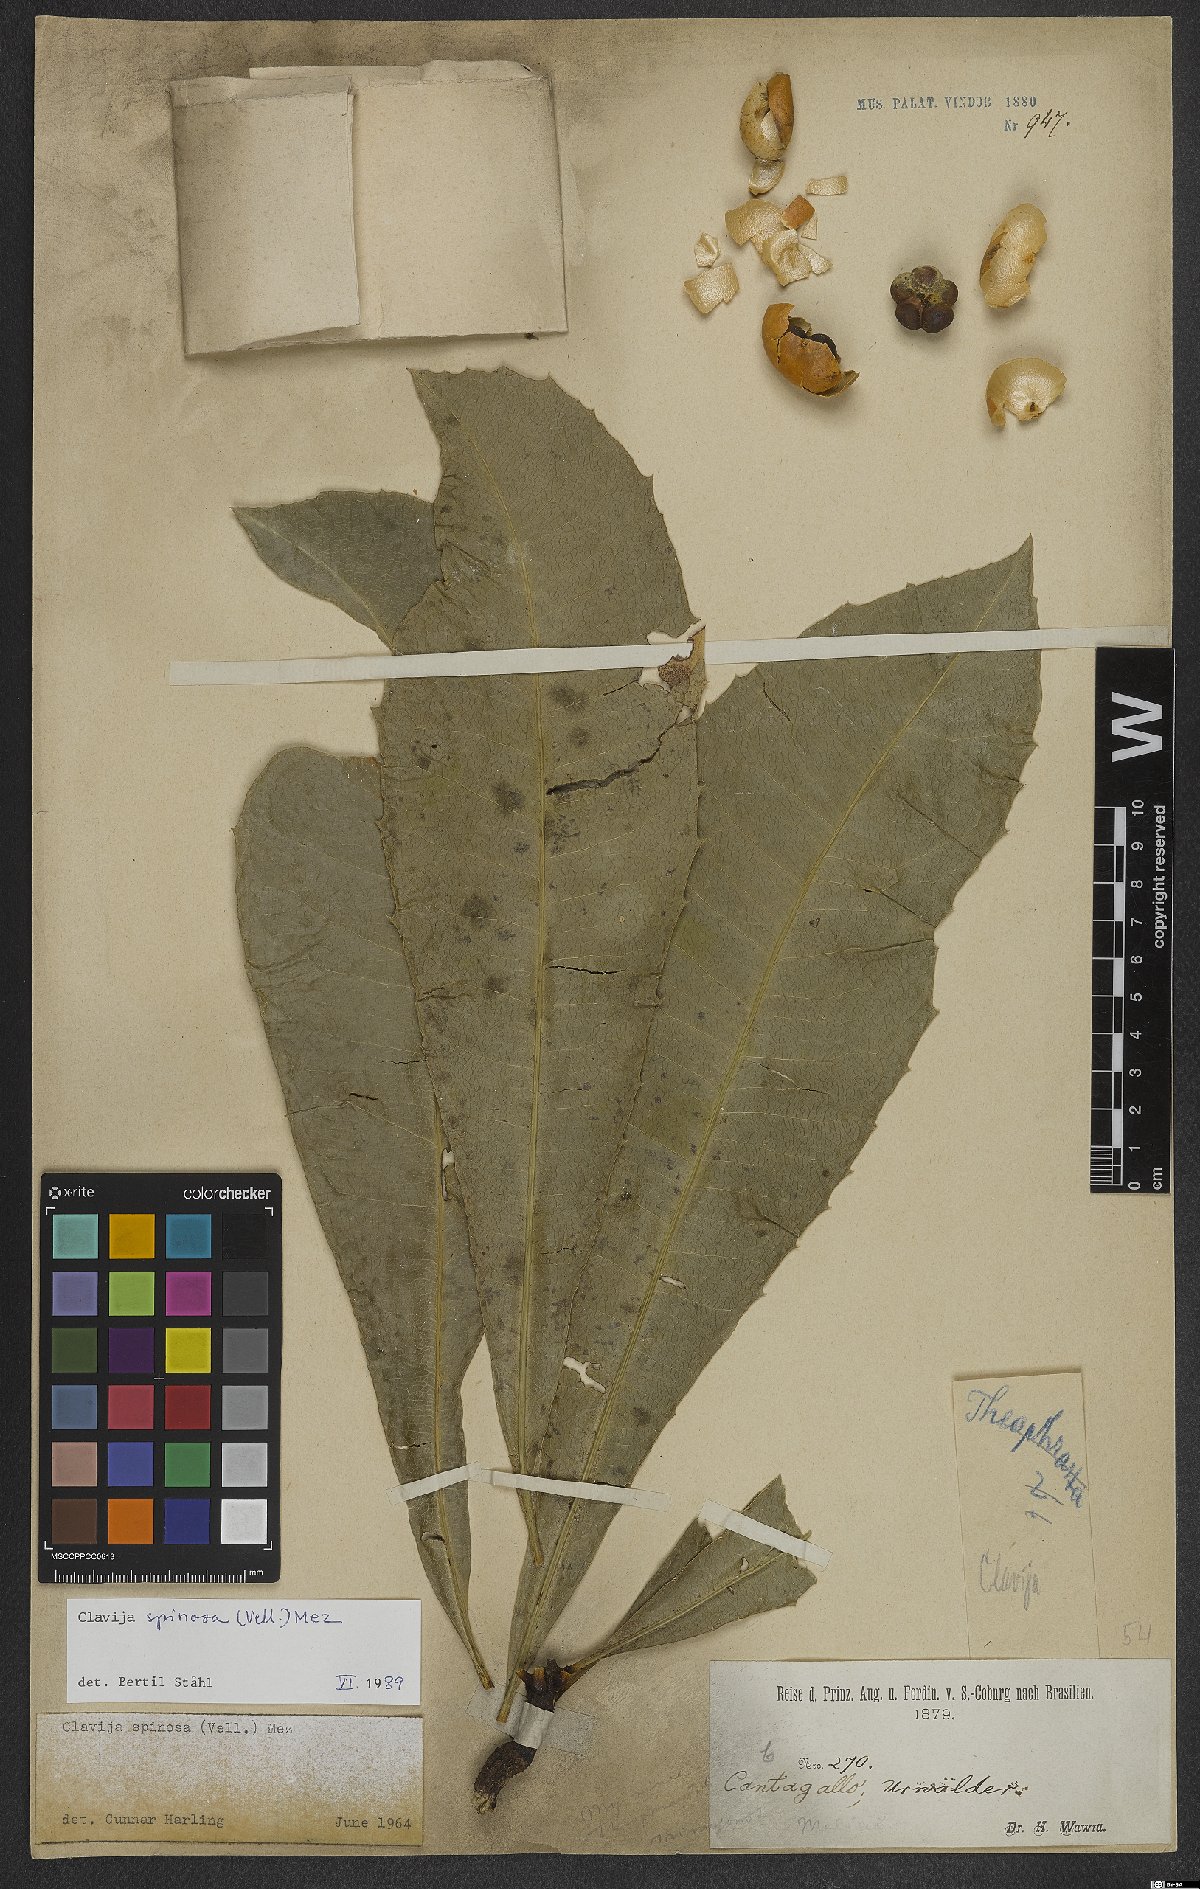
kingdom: Plantae
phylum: Tracheophyta
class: Magnoliopsida
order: Ericales
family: Primulaceae
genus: Clavija
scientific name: Clavija spinosa
